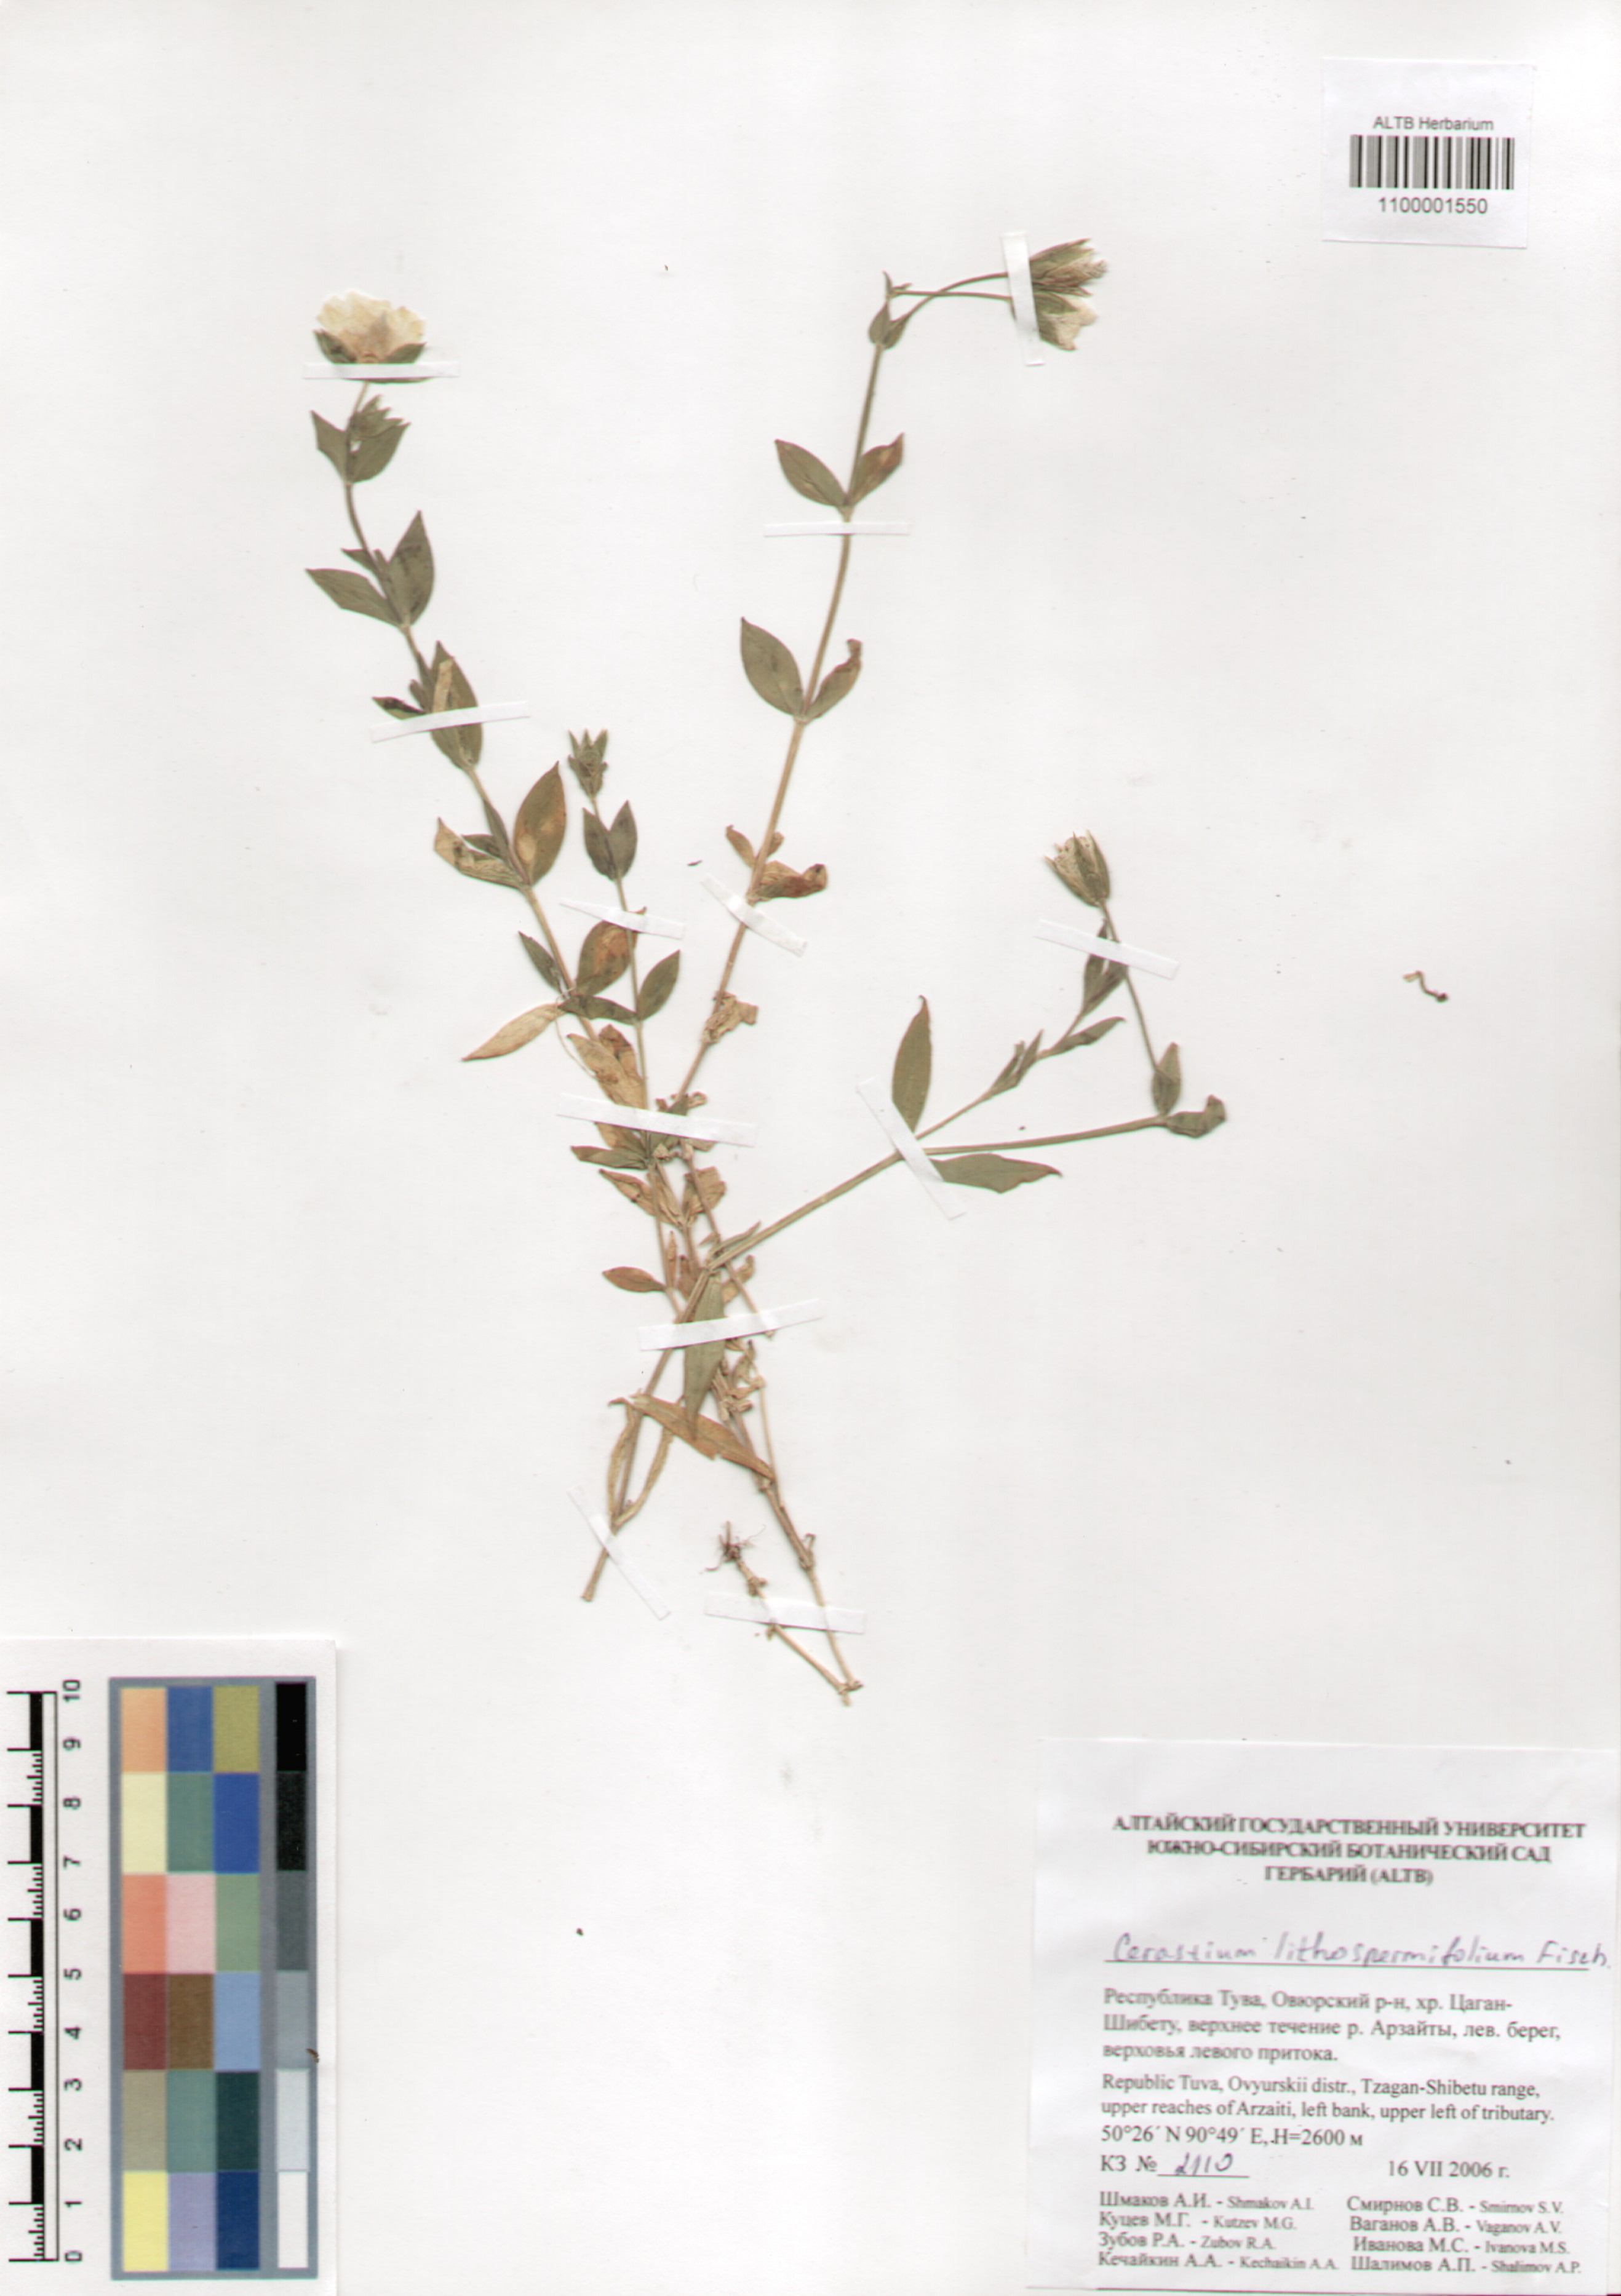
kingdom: Plantae
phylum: Tracheophyta
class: Magnoliopsida
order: Caryophyllales
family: Caryophyllaceae
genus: Cerastium
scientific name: Cerastium lithospermifolium
